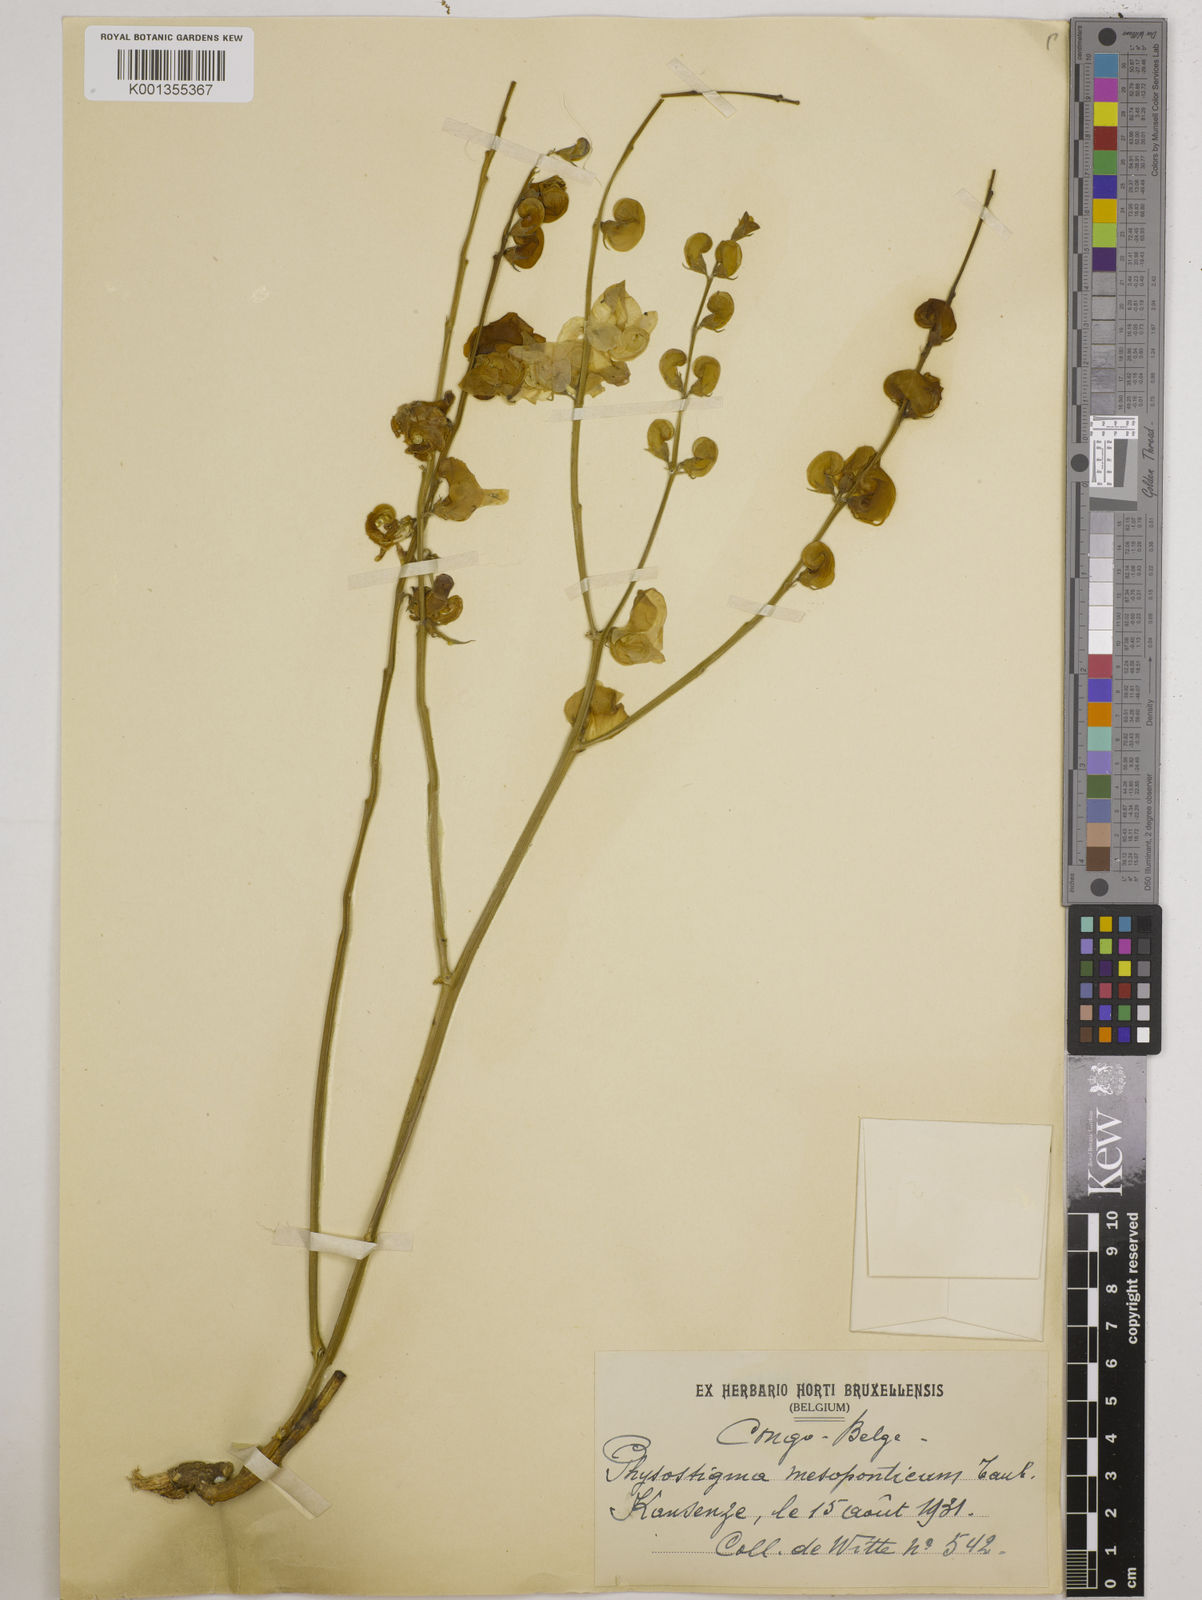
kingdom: Plantae
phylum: Tracheophyta
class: Magnoliopsida
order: Fabales
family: Fabaceae
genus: Physostigma
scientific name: Physostigma mesoponticum
